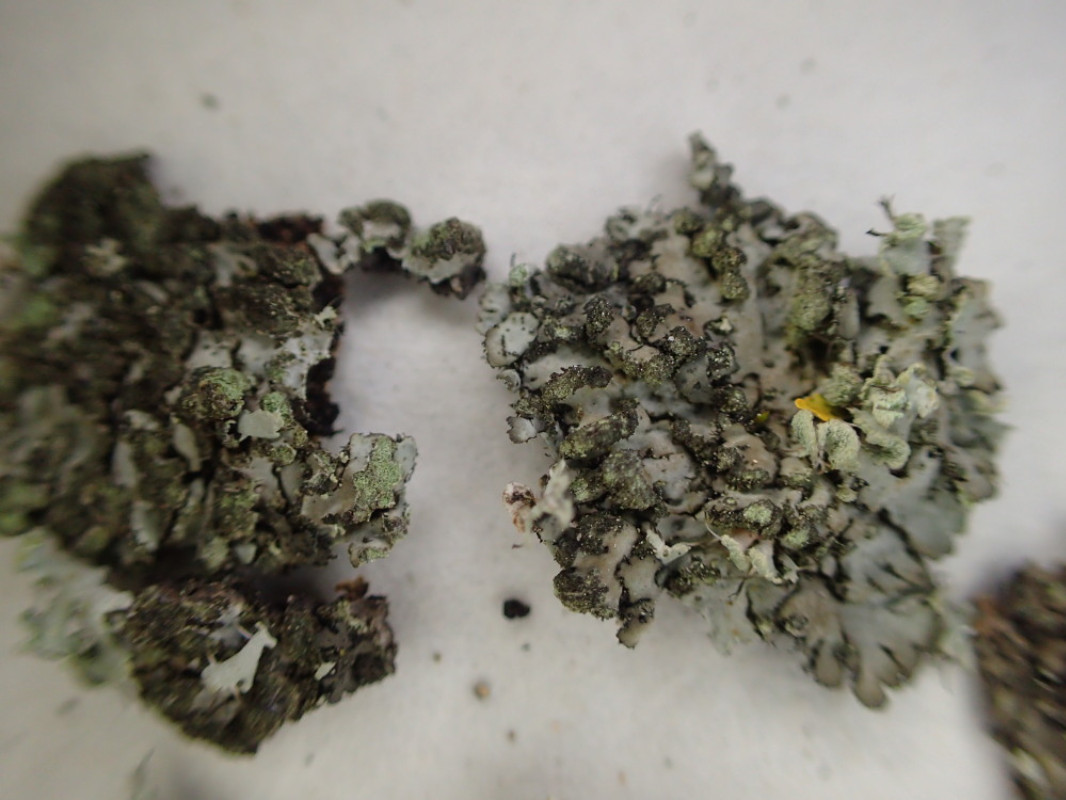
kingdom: Fungi
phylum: Ascomycota
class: Lecanoromycetes
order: Caliciales
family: Physciaceae
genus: Phaeophyscia
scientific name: Phaeophyscia orbicularis
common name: grågrøn rosetlav
